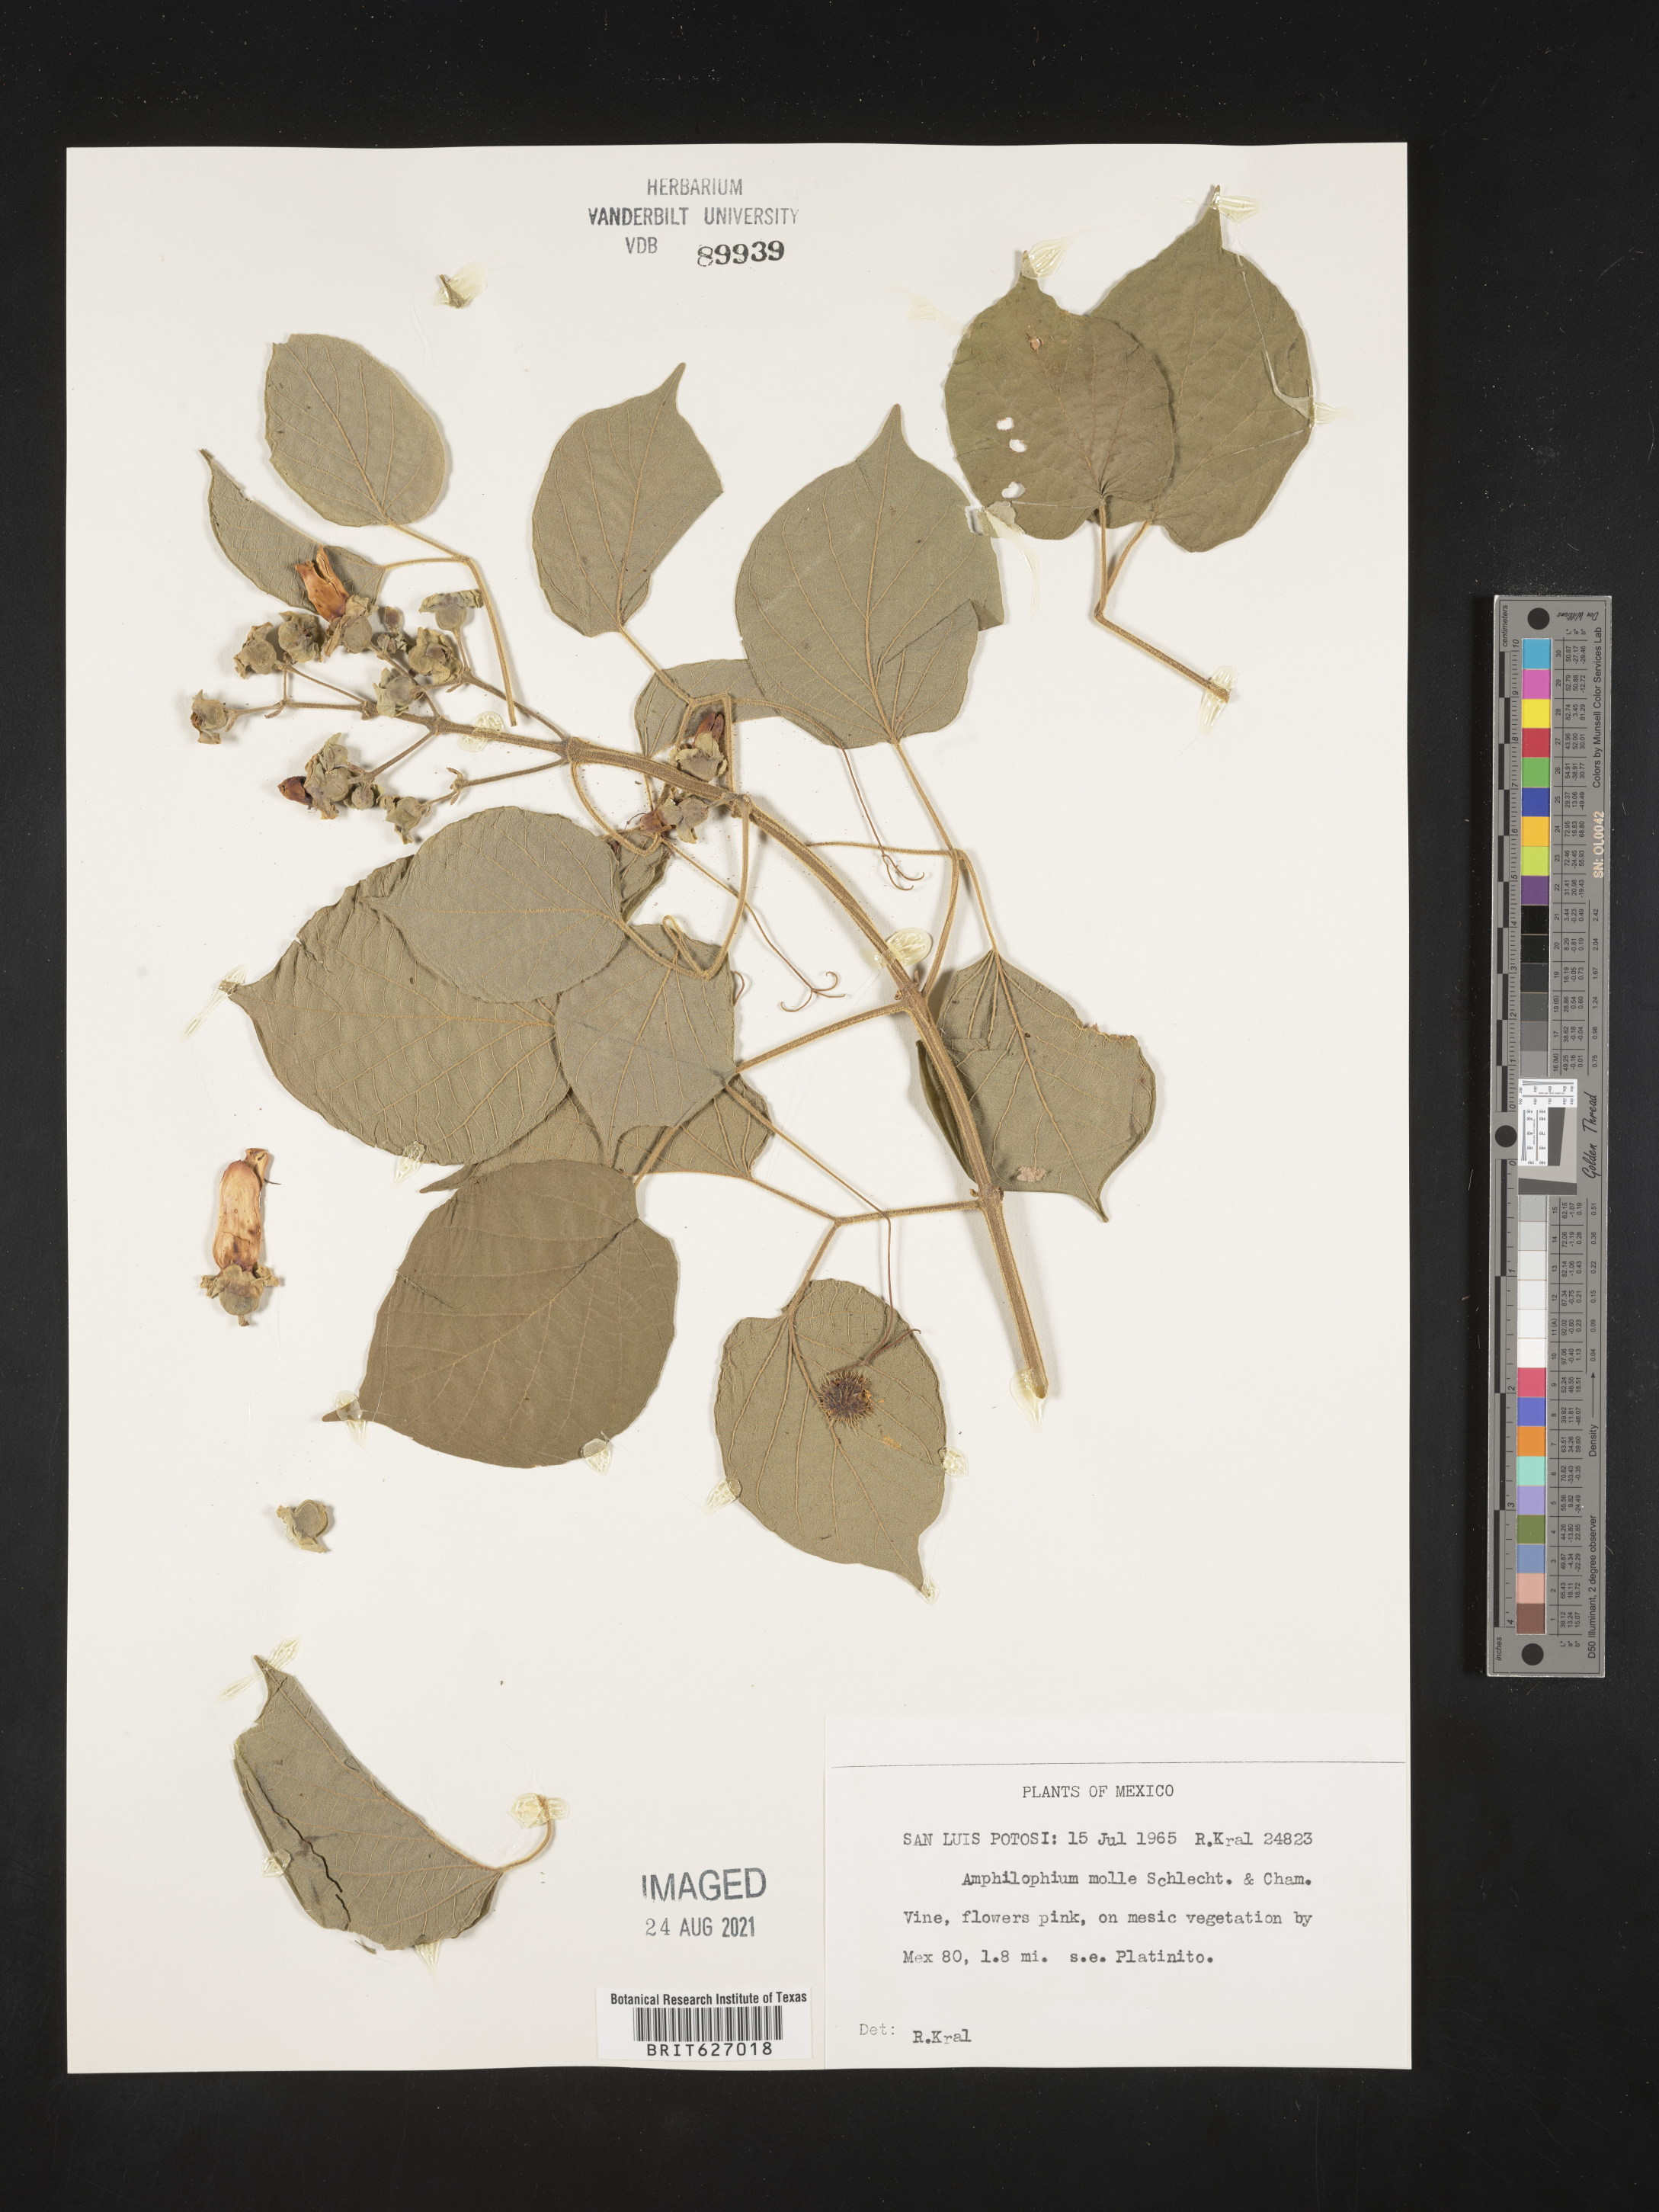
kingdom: Plantae
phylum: Tracheophyta
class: Magnoliopsida
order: Lamiales
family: Bignoniaceae
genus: Amphilophium
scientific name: Amphilophium
